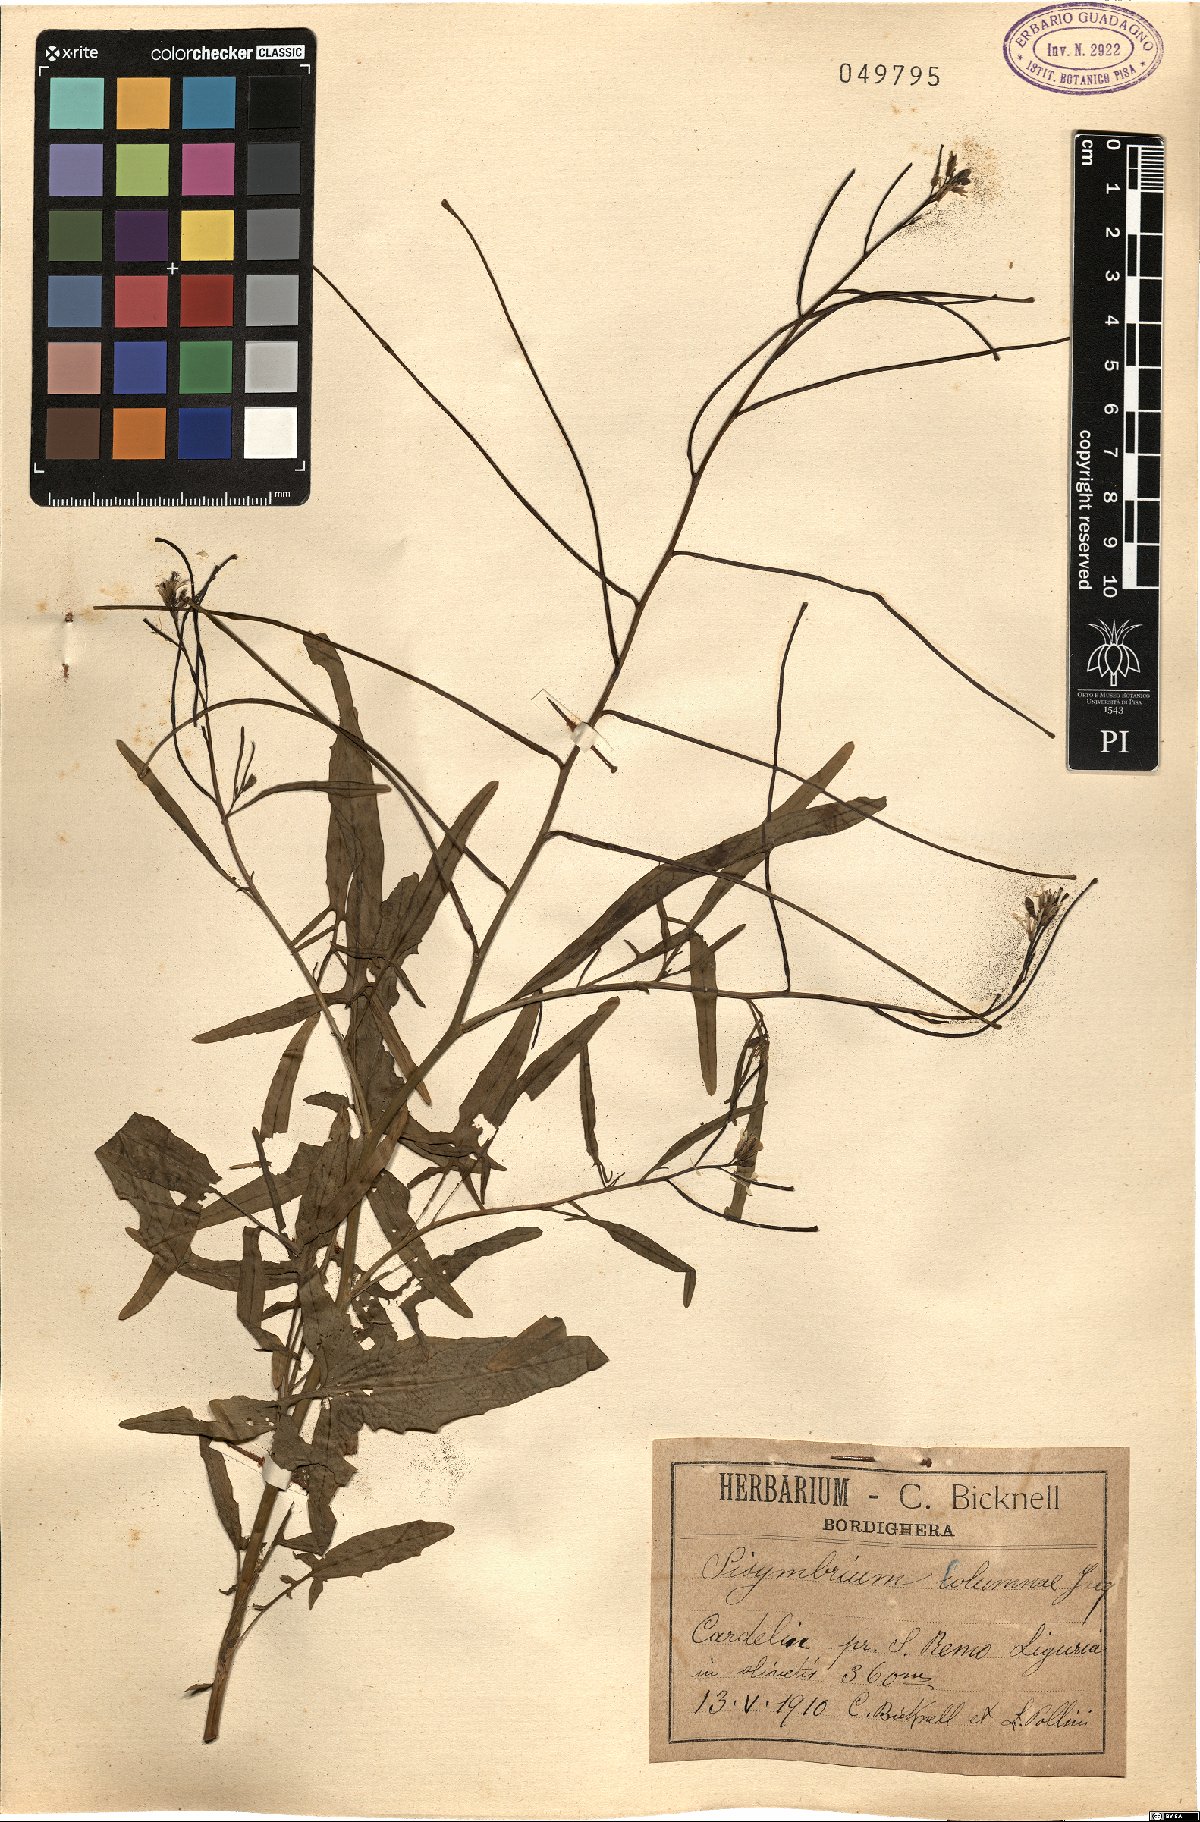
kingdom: Plantae
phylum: Tracheophyta
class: Magnoliopsida
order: Brassicales
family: Brassicaceae
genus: Sisymbrium
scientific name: Sisymbrium orientale
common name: Eastern rocket
